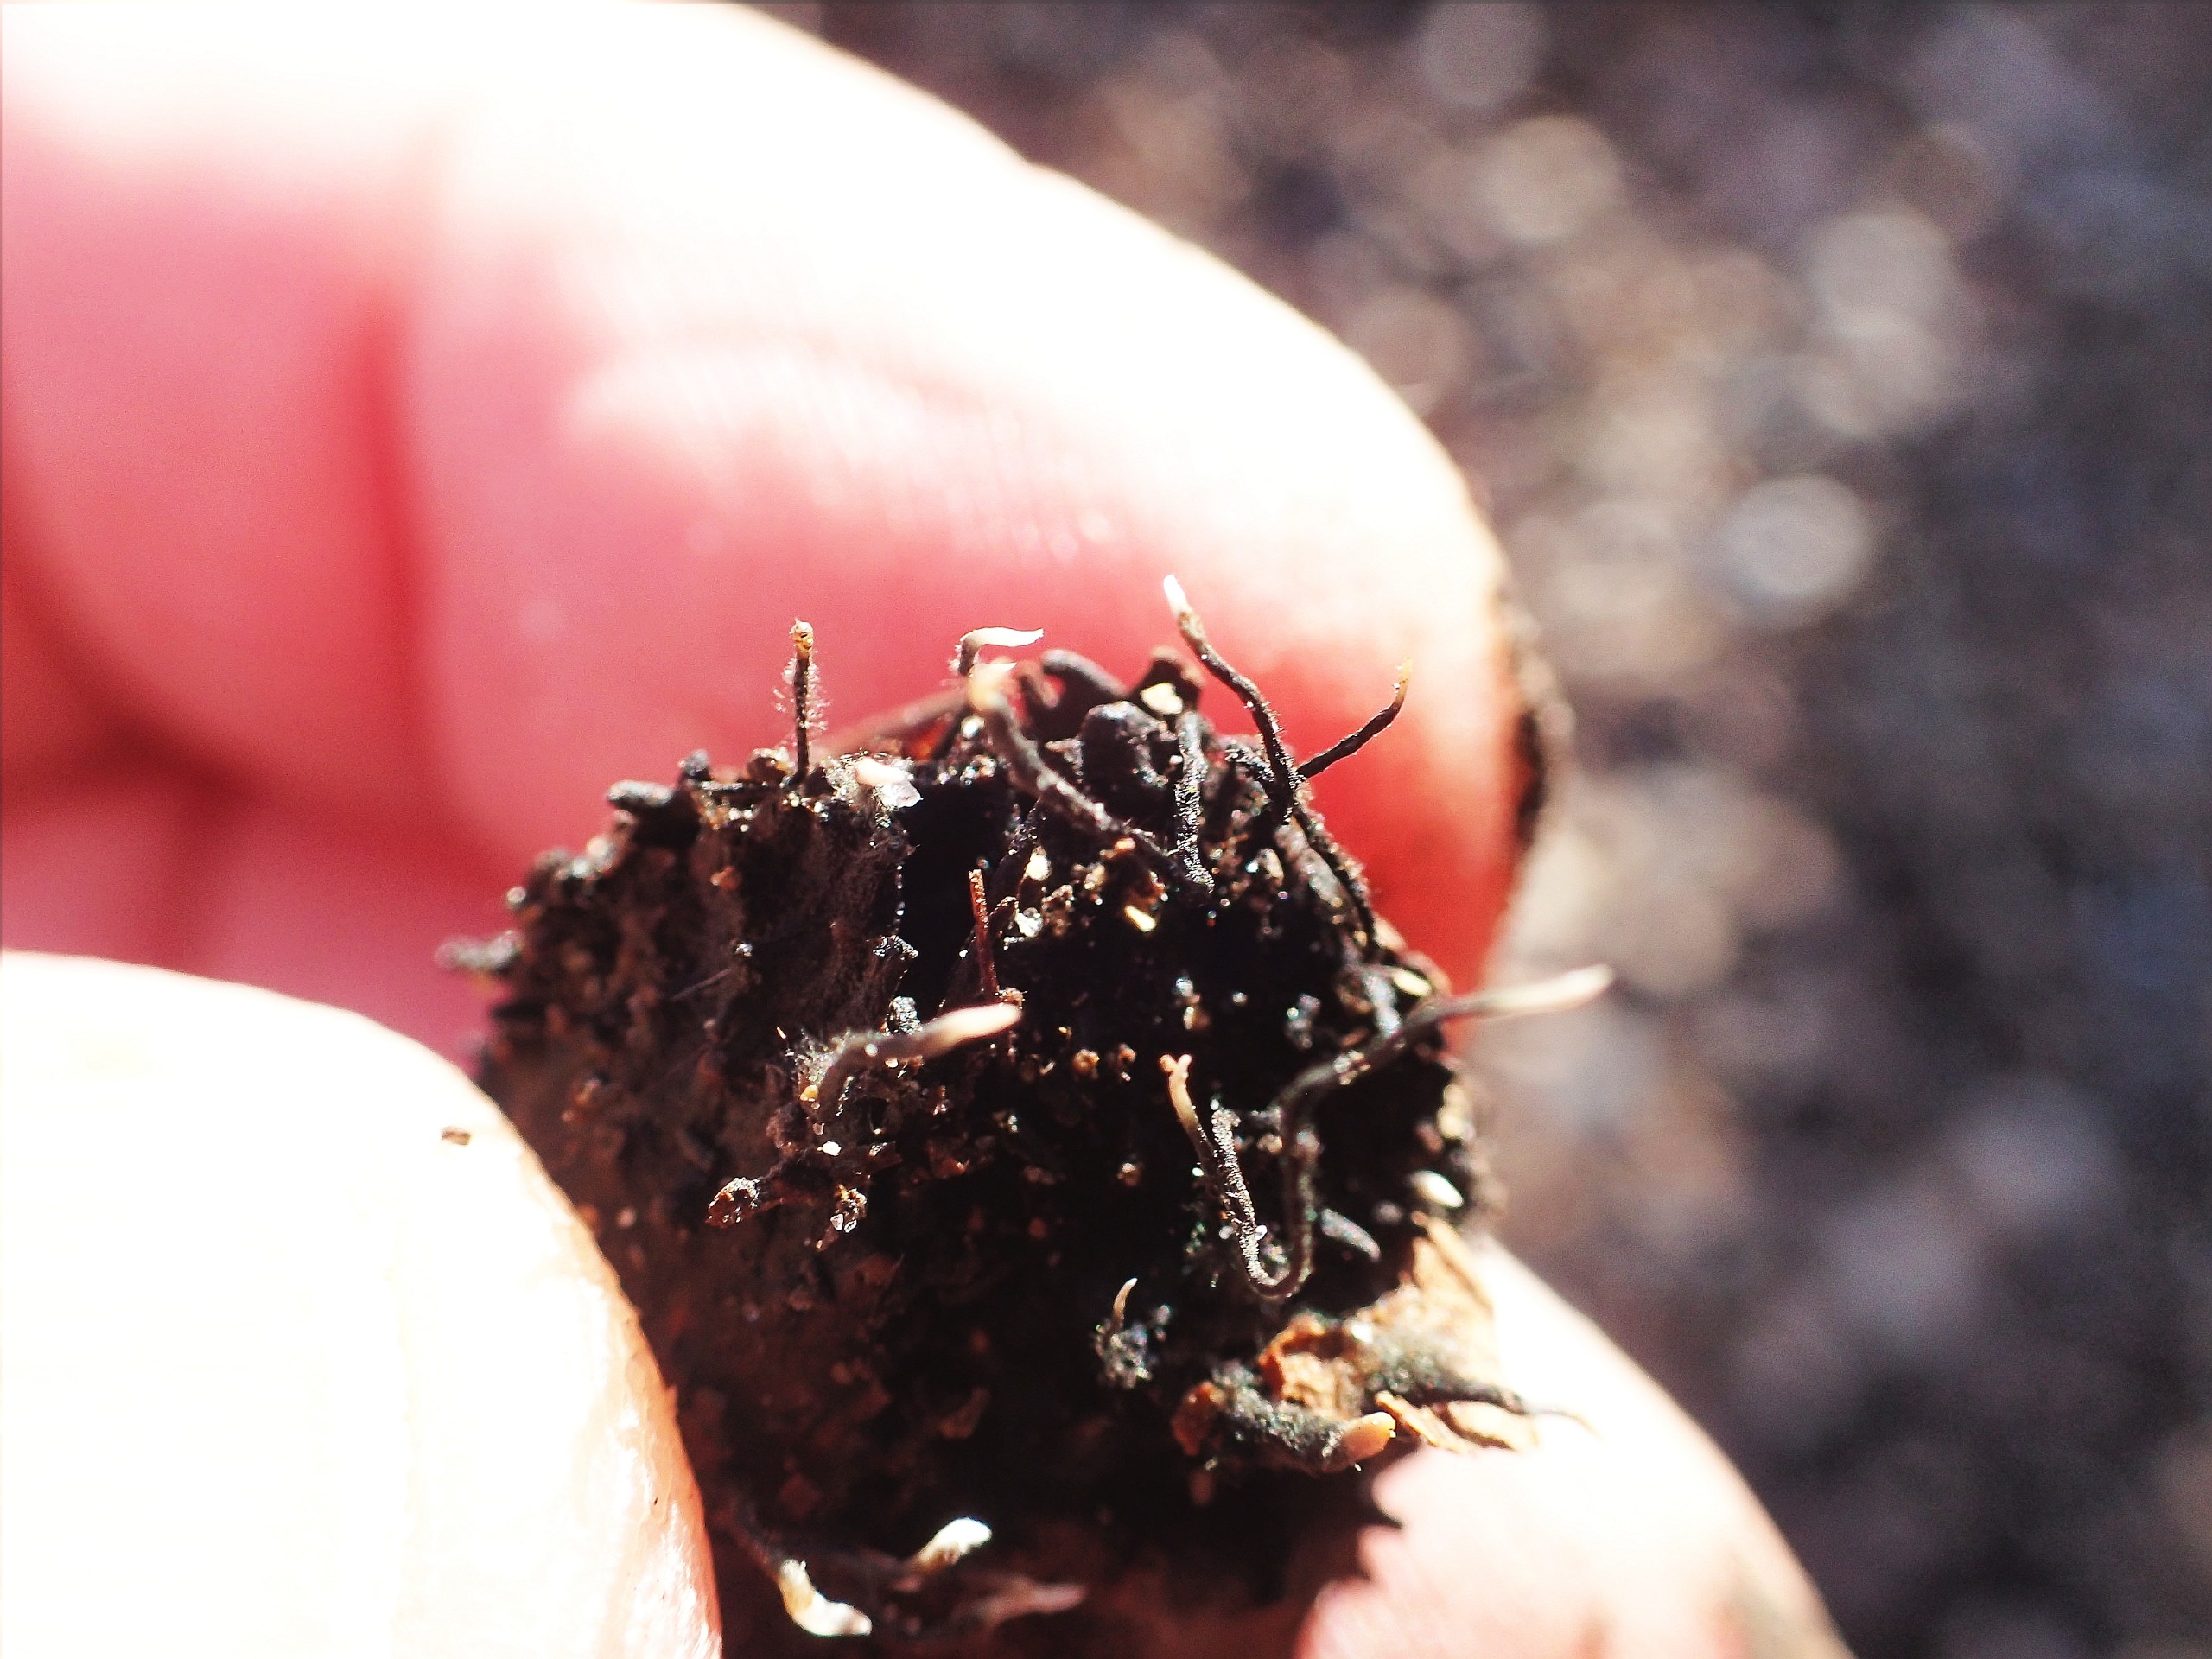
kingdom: Fungi
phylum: Ascomycota
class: Sordariomycetes
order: Xylariales
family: Xylariaceae
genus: Xylaria
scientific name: Xylaria carpophila
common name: Bogskål-stødsvamp
